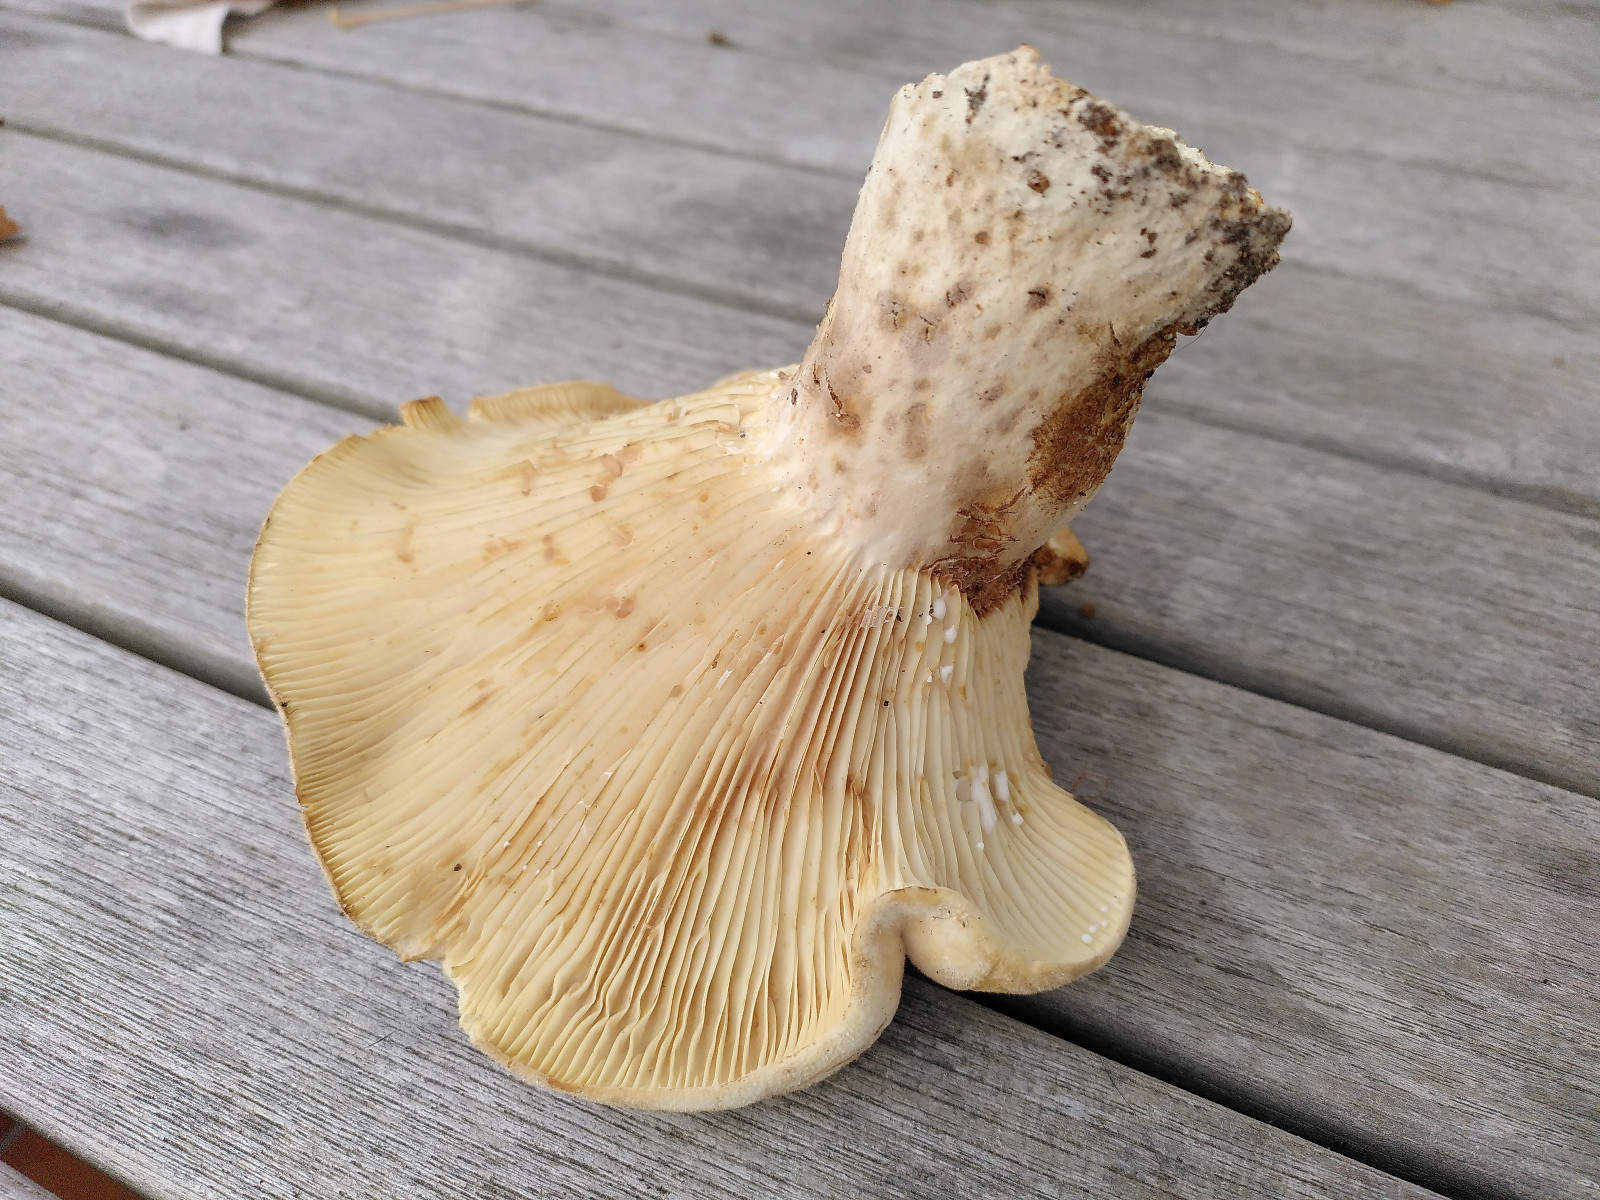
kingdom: Fungi
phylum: Basidiomycota
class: Agaricomycetes
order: Russulales
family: Russulaceae
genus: Lactifluus
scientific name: Lactifluus vellereus
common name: hvidfiltet mælkehat
